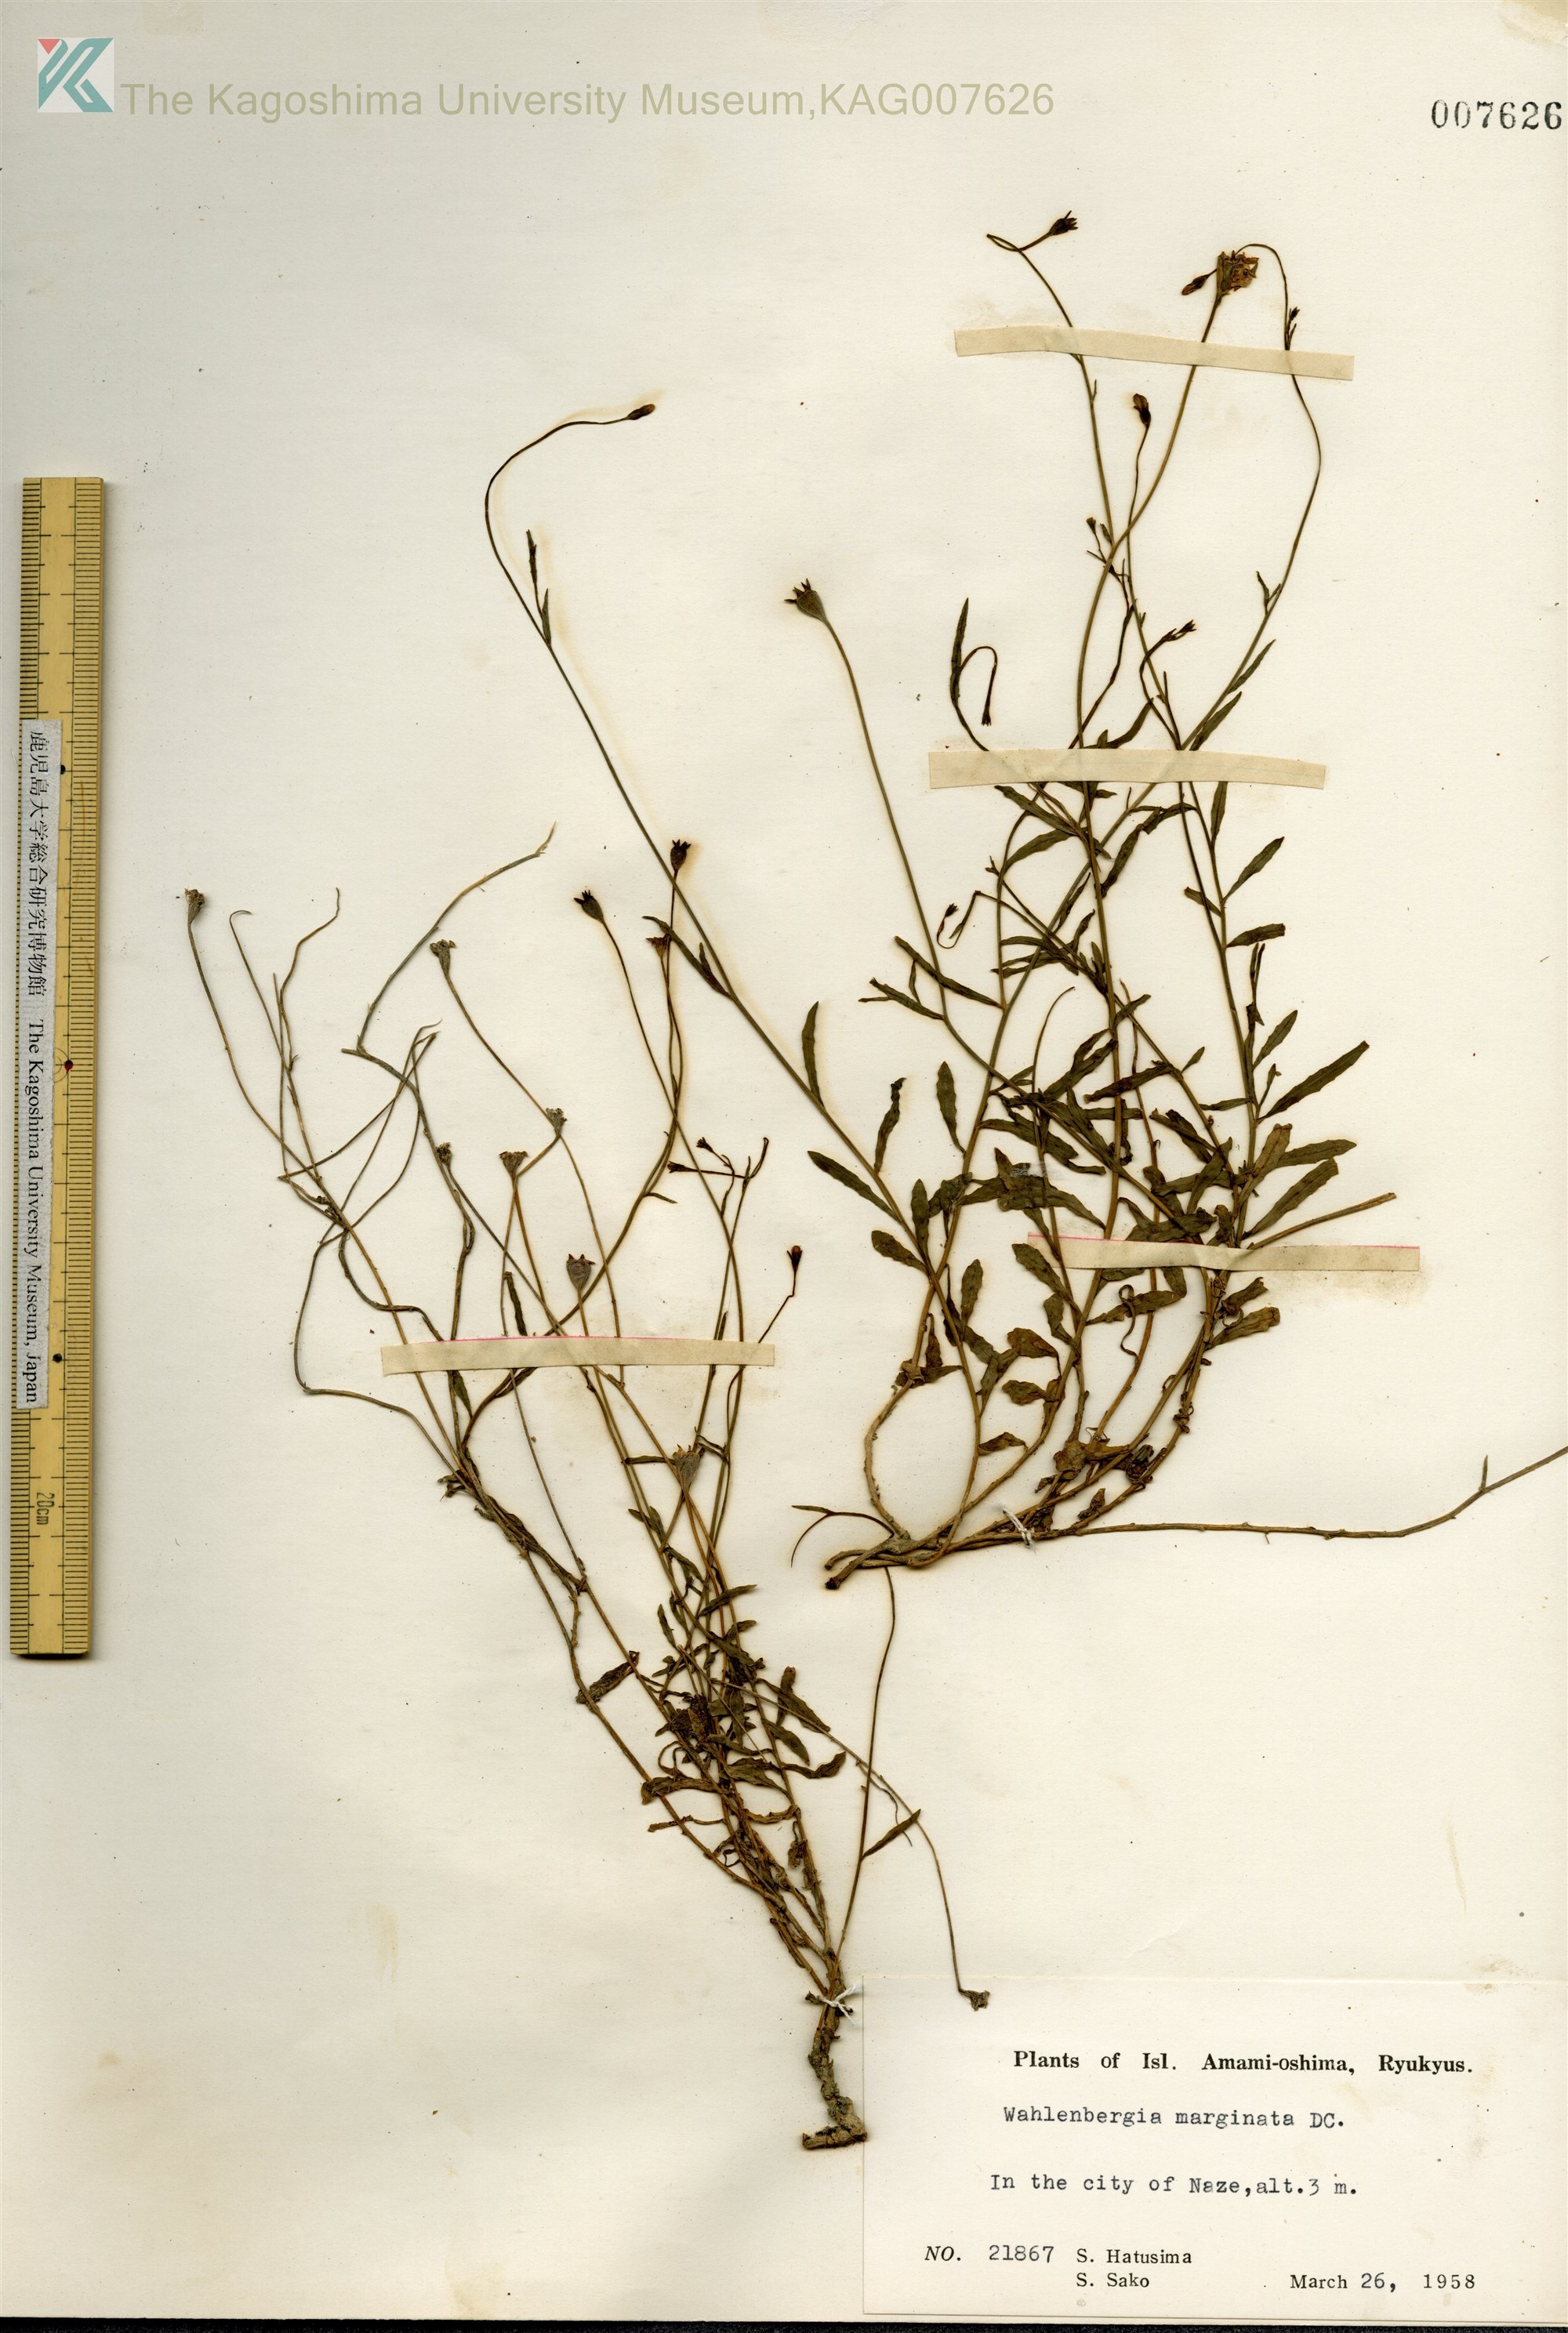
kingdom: Plantae
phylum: Tracheophyta
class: Magnoliopsida
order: Asterales
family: Campanulaceae
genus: Wahlenbergia
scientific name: Wahlenbergia marginata
